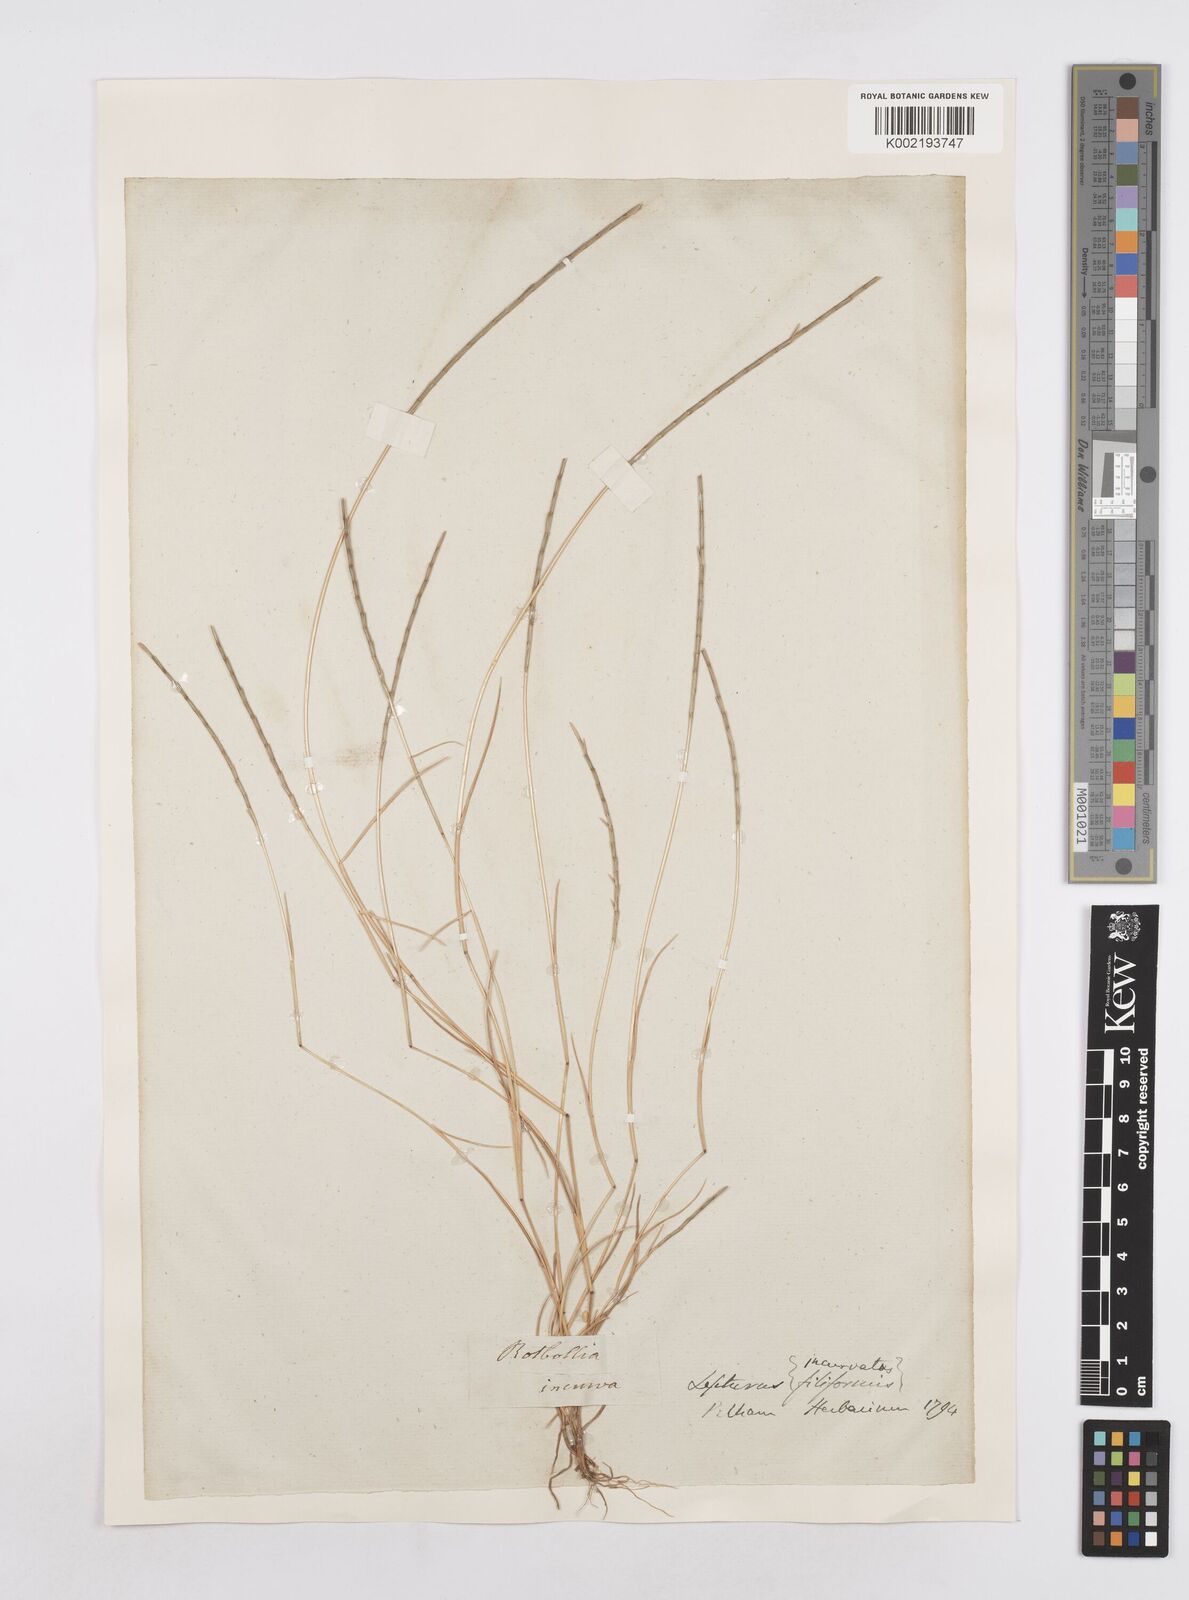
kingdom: Plantae
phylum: Tracheophyta
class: Liliopsida
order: Poales
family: Poaceae
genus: Parapholis
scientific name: Parapholis strigosa
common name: Hard-grass
